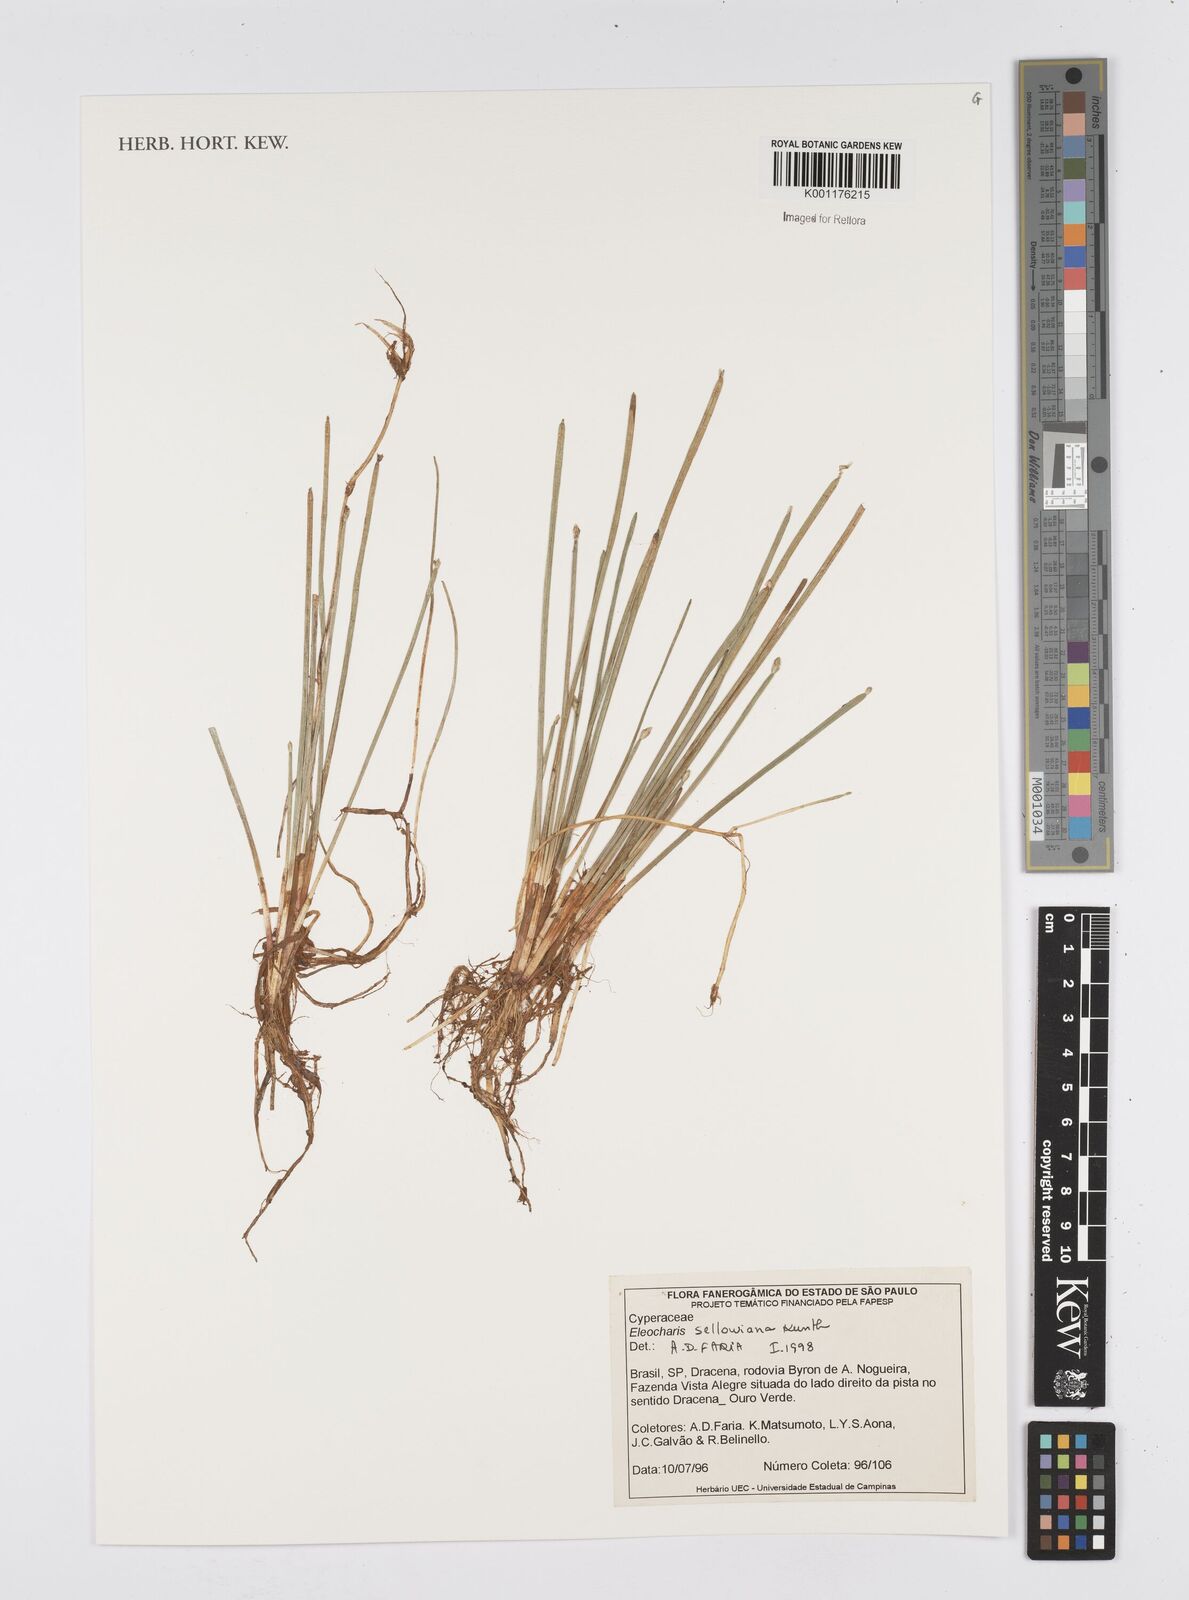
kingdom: Plantae
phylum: Tracheophyta
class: Liliopsida
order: Poales
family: Cyperaceae
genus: Eleocharis
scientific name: Eleocharis sellowiana
